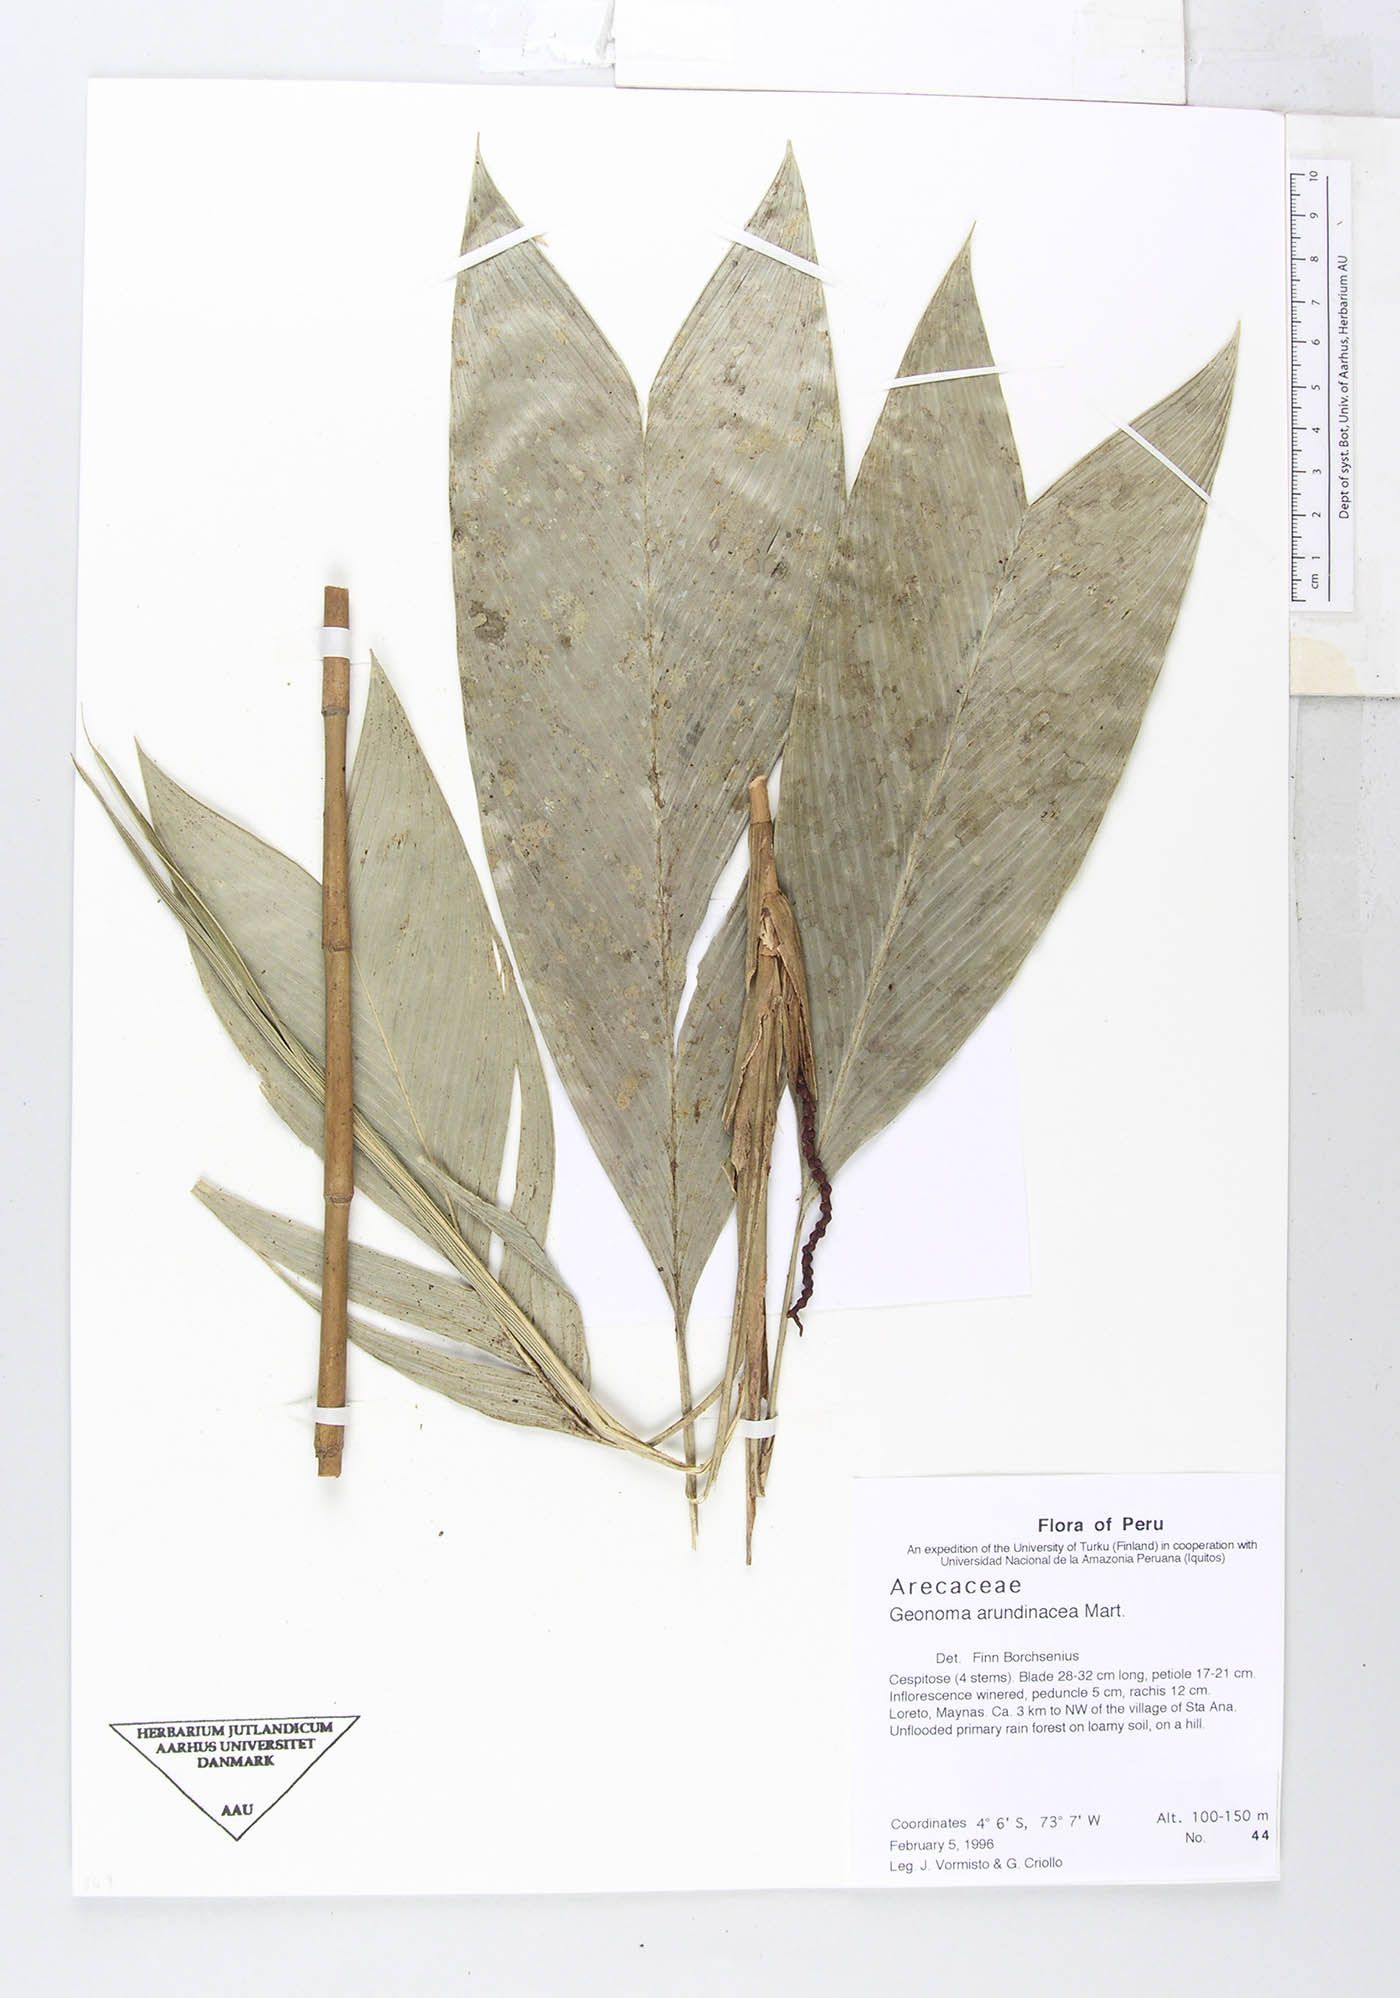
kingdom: Plantae
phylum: Tracheophyta
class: Liliopsida
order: Arecales
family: Arecaceae
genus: Geonoma
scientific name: Geonoma stricta
